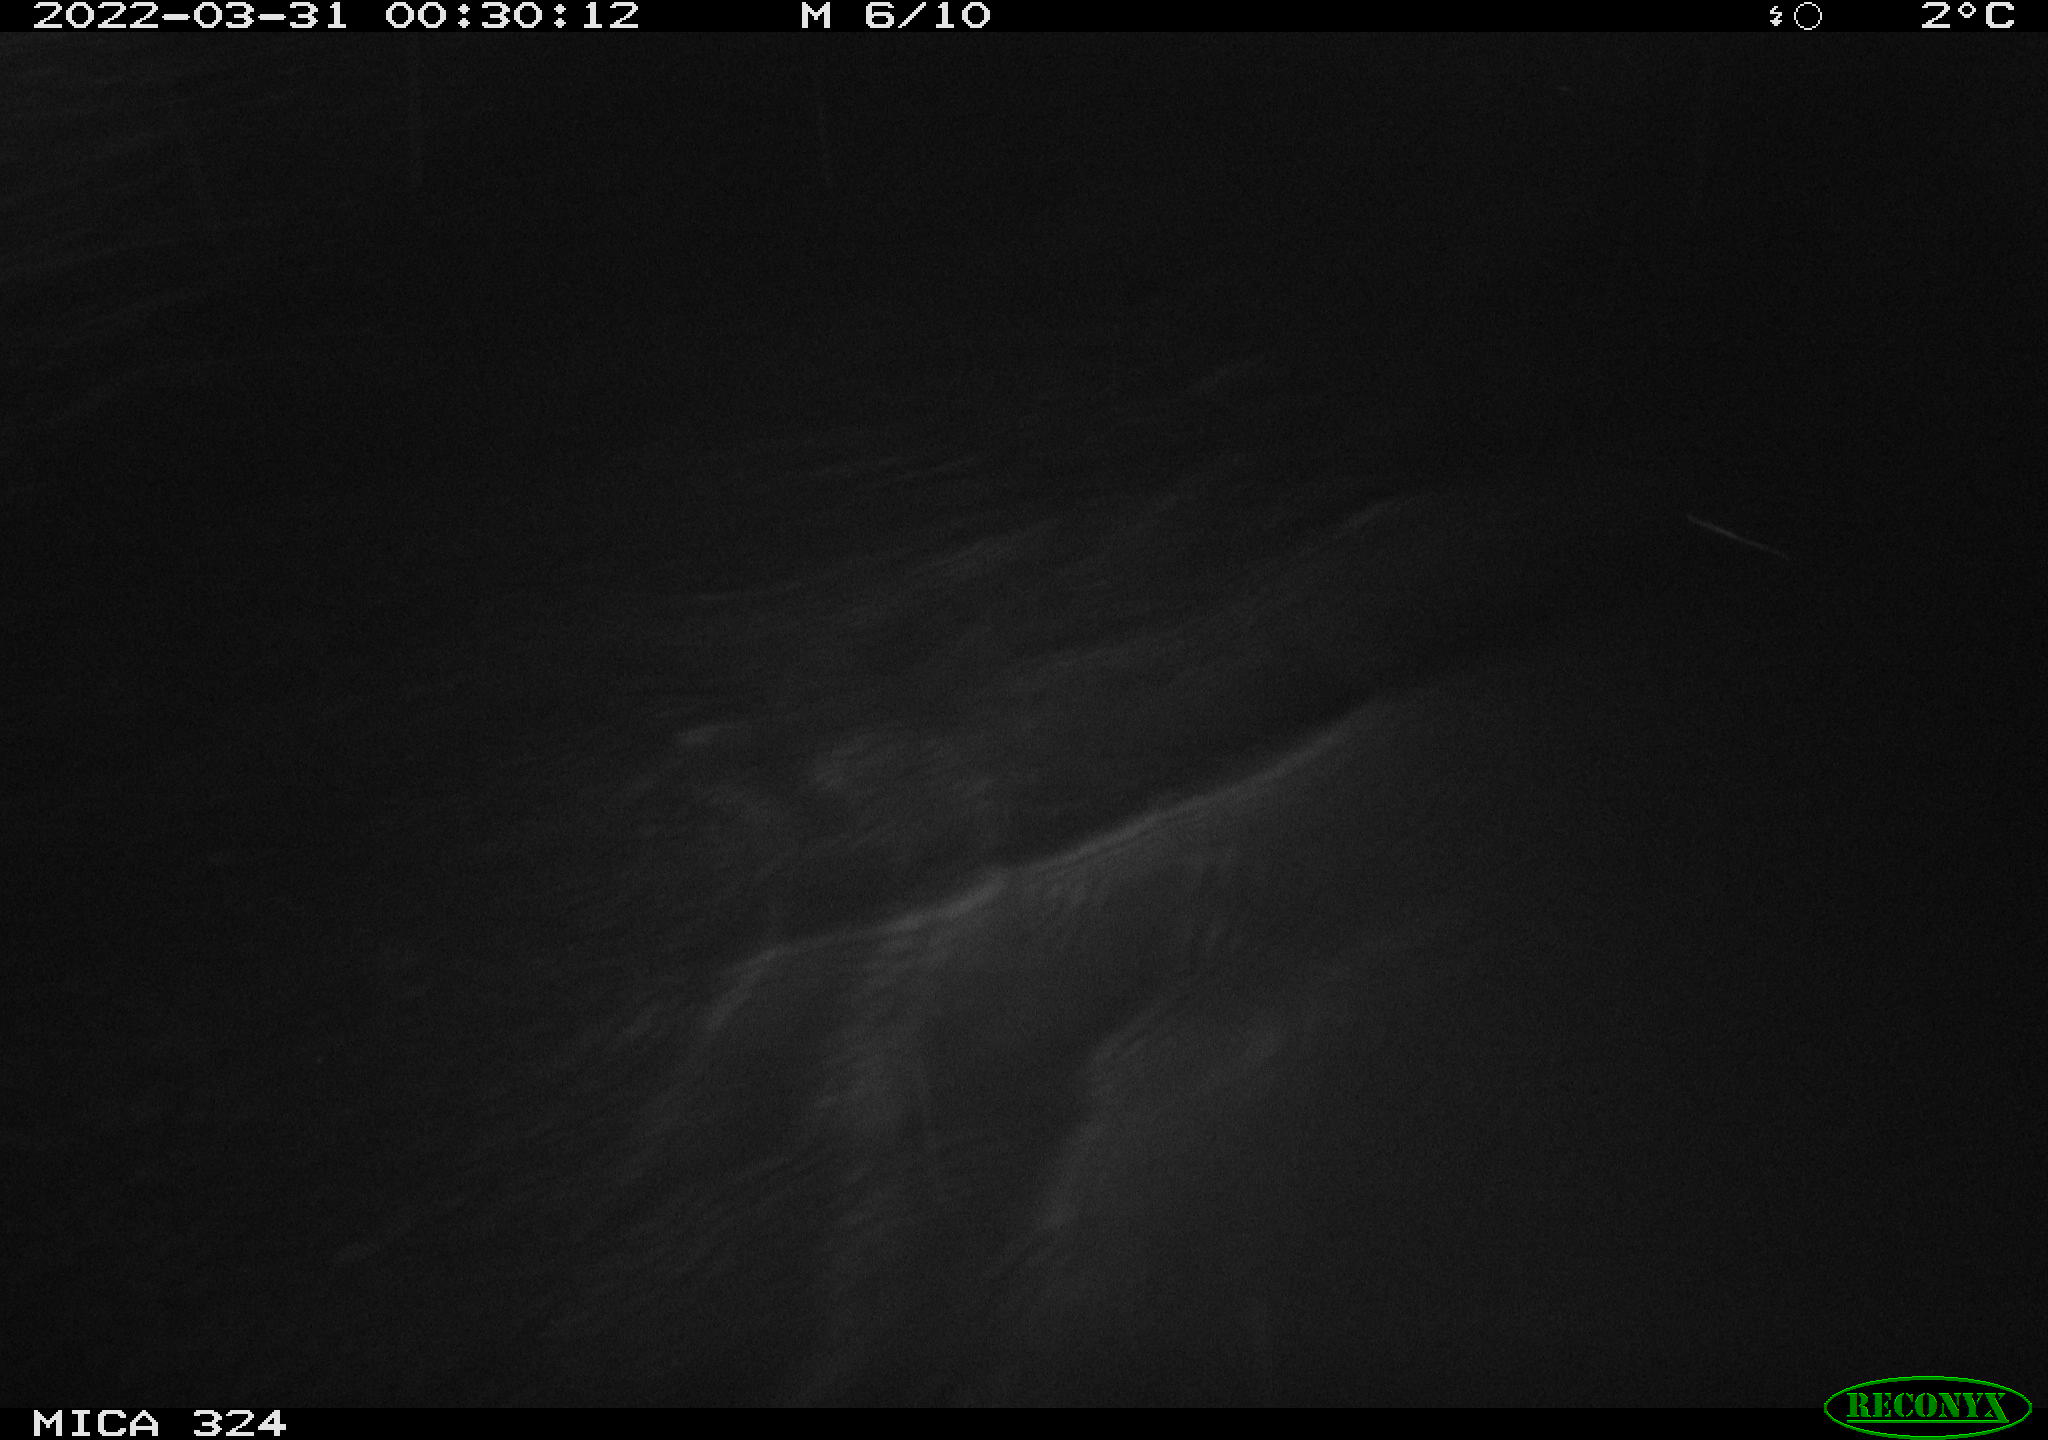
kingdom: Animalia
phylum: Chordata
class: Mammalia
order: Rodentia
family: Cricetidae
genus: Ondatra
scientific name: Ondatra zibethicus
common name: Muskrat
